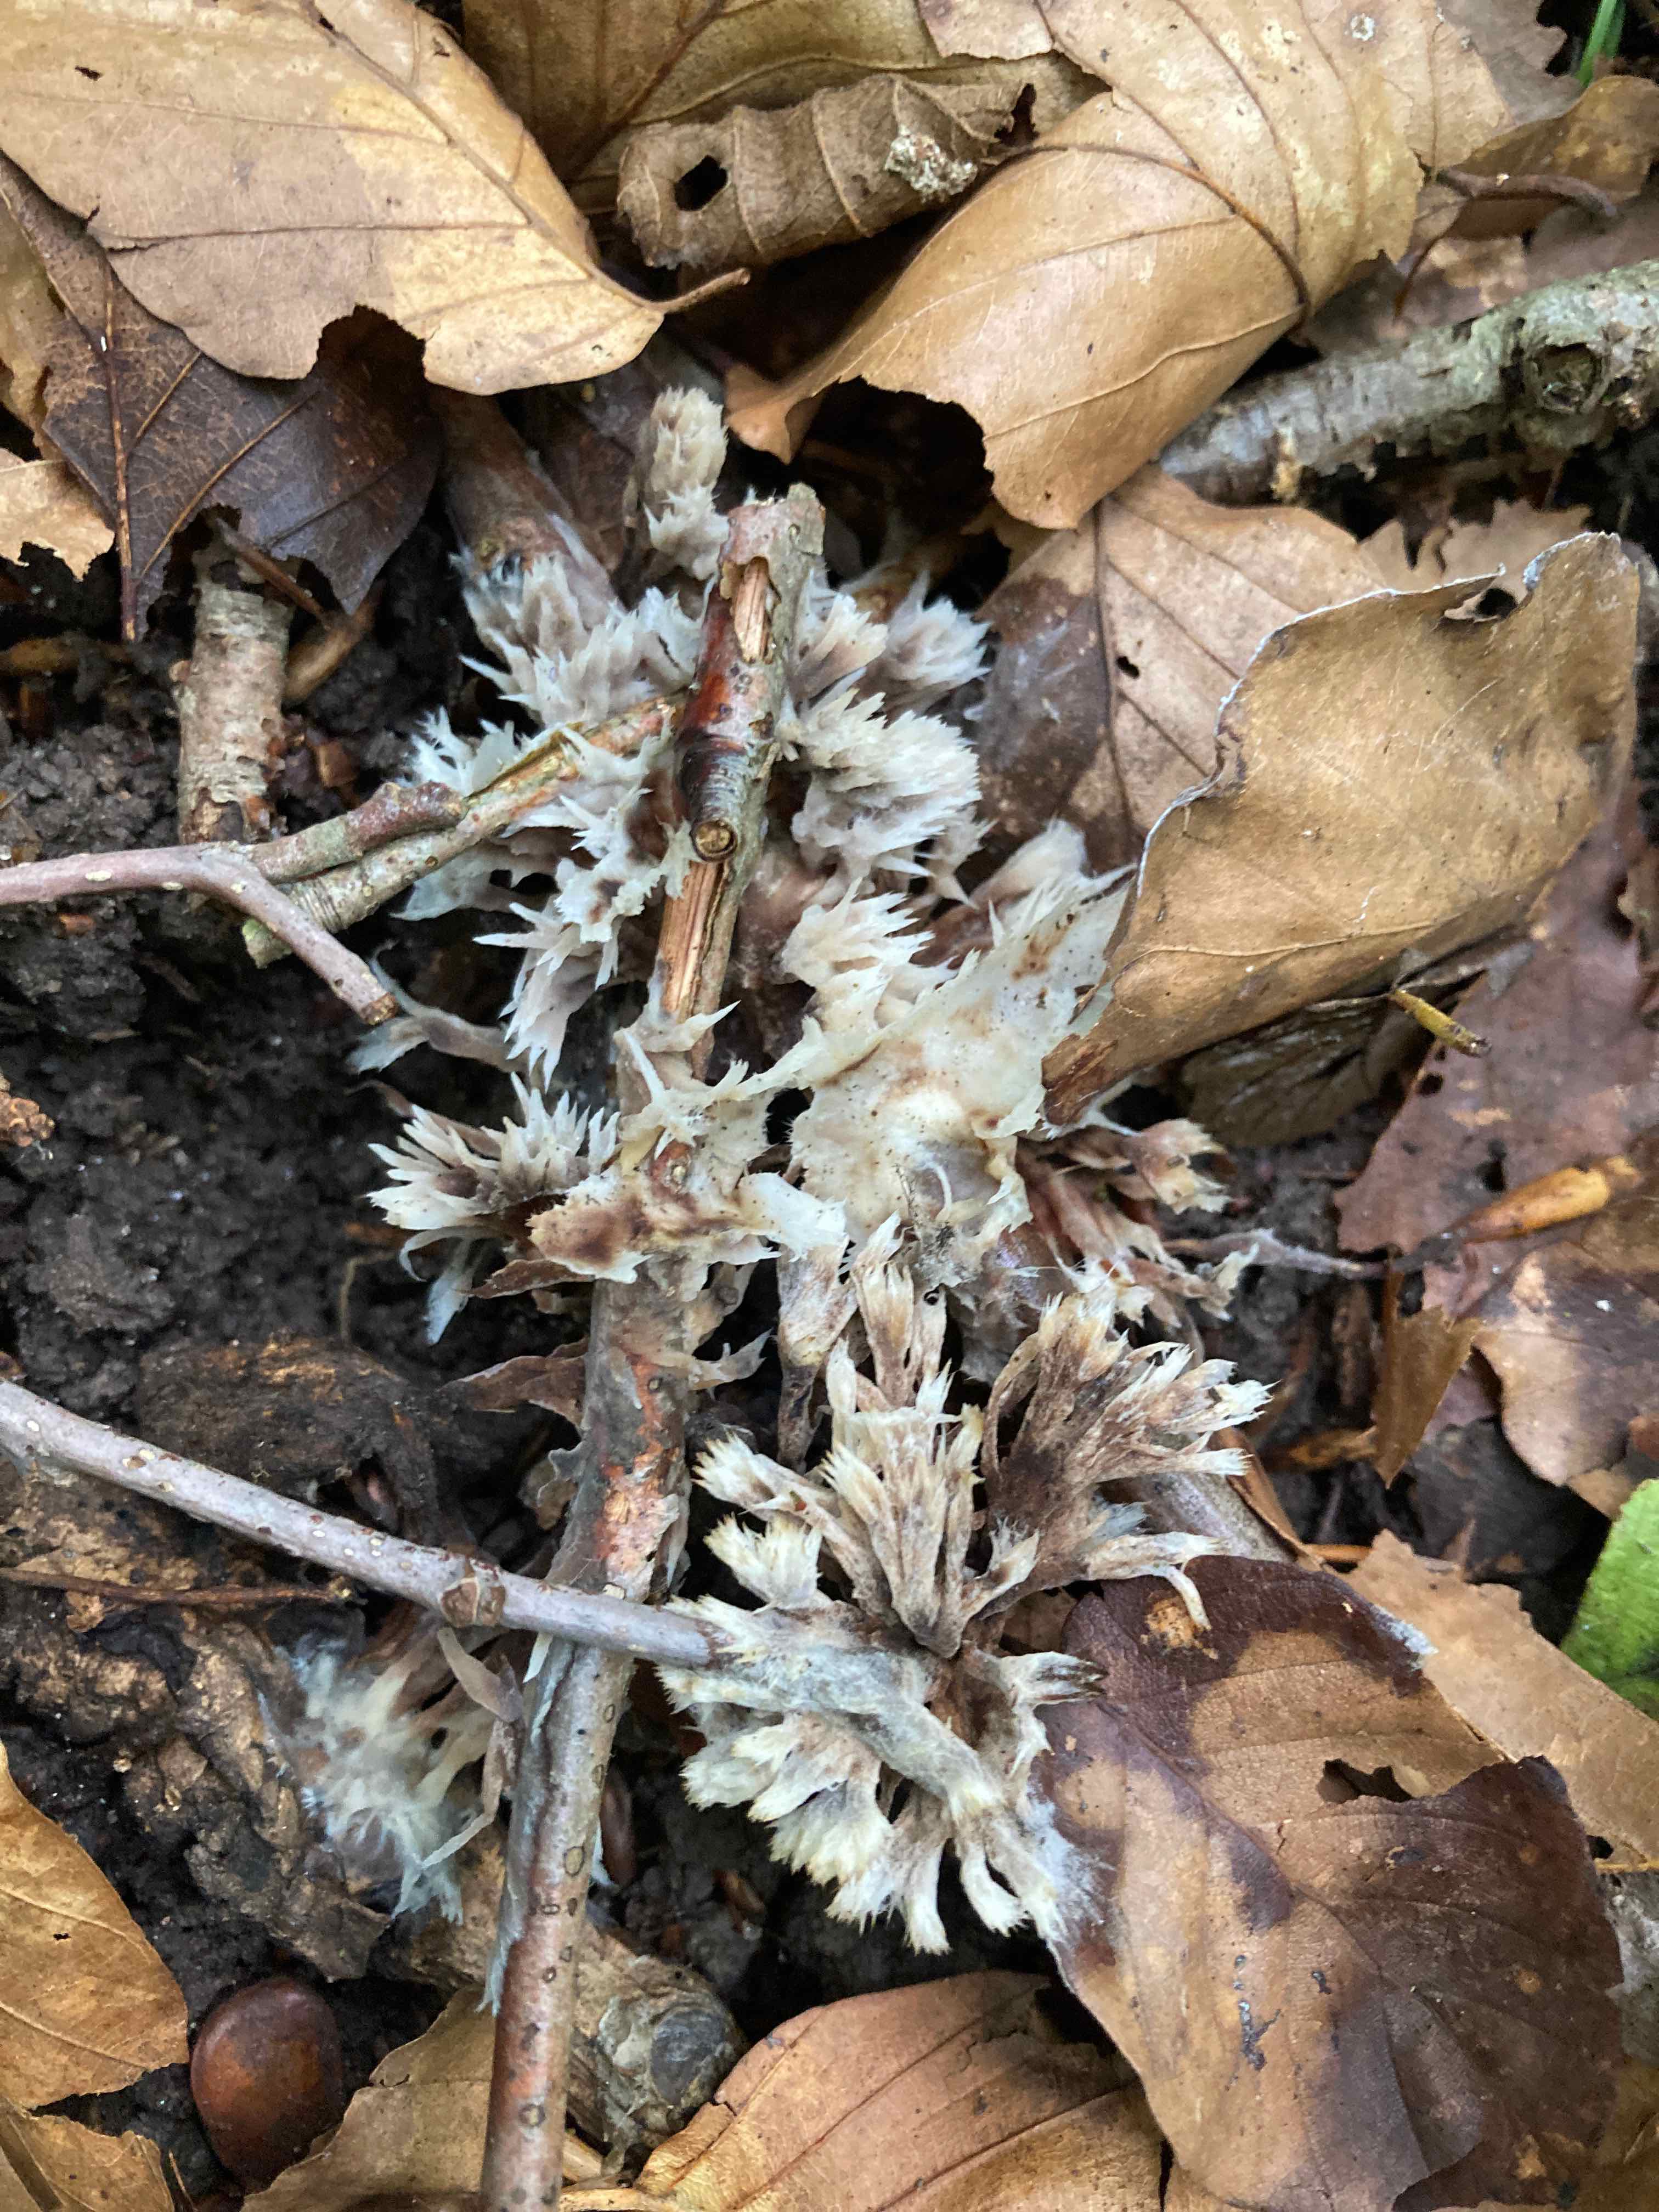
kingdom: Fungi
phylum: Basidiomycota
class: Agaricomycetes
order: Thelephorales
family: Thelephoraceae
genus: Thelephora
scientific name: Thelephora penicillata
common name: fladtrådt frynsesvamp
